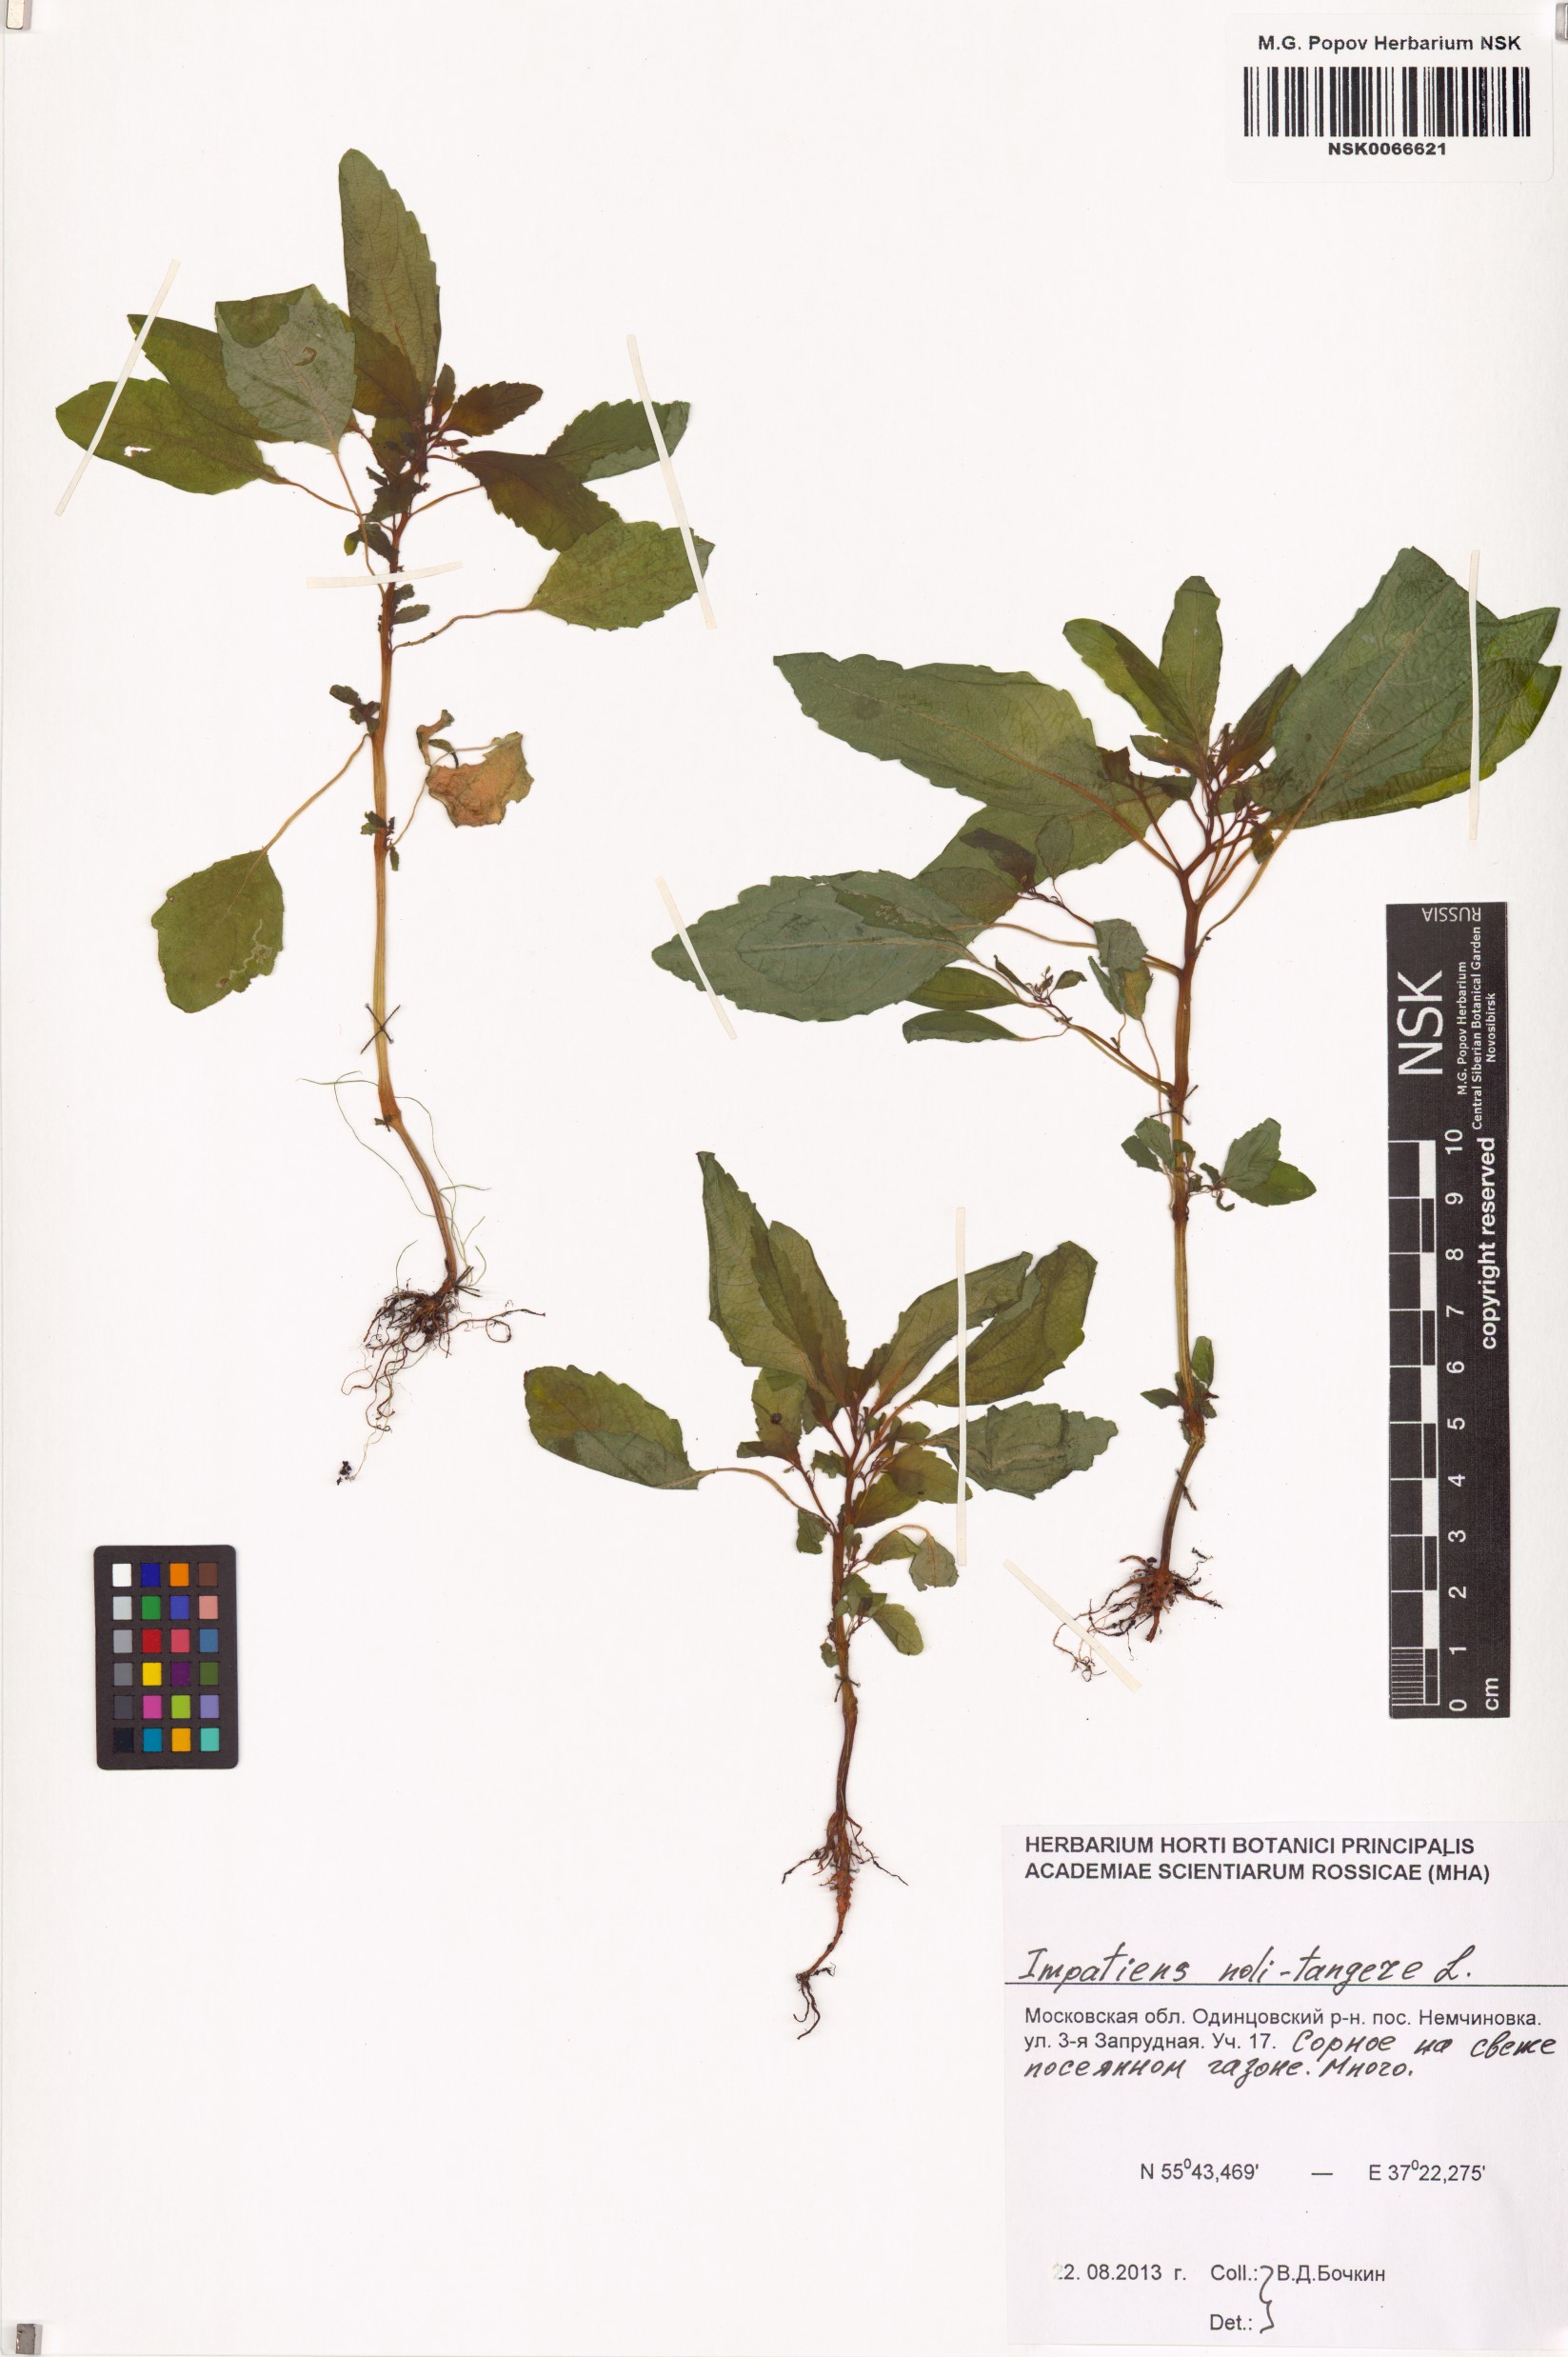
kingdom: Plantae
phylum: Tracheophyta
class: Magnoliopsida
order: Ericales
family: Balsaminaceae
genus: Impatiens
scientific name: Impatiens noli-tangere
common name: Touch-me-not balsam
